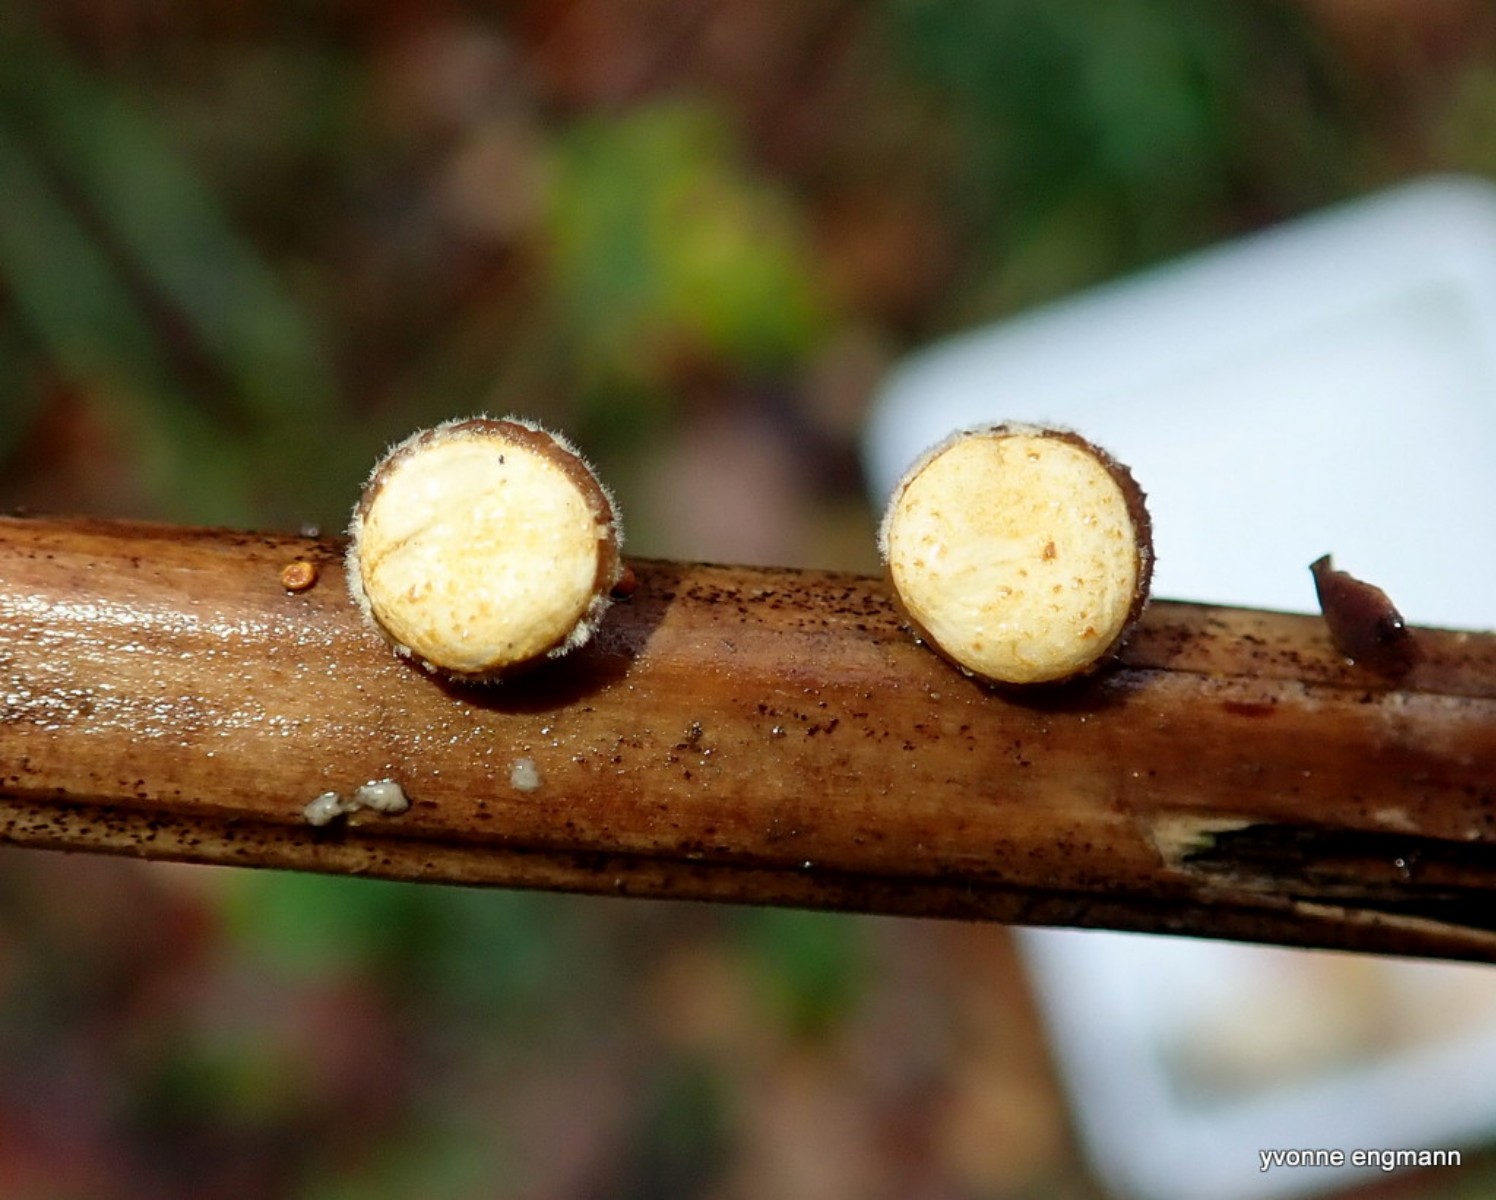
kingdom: Fungi
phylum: Basidiomycota
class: Agaricomycetes
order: Agaricales
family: Nidulariaceae
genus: Crucibulum
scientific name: Crucibulum crucibuliforme
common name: krukkesvamp
